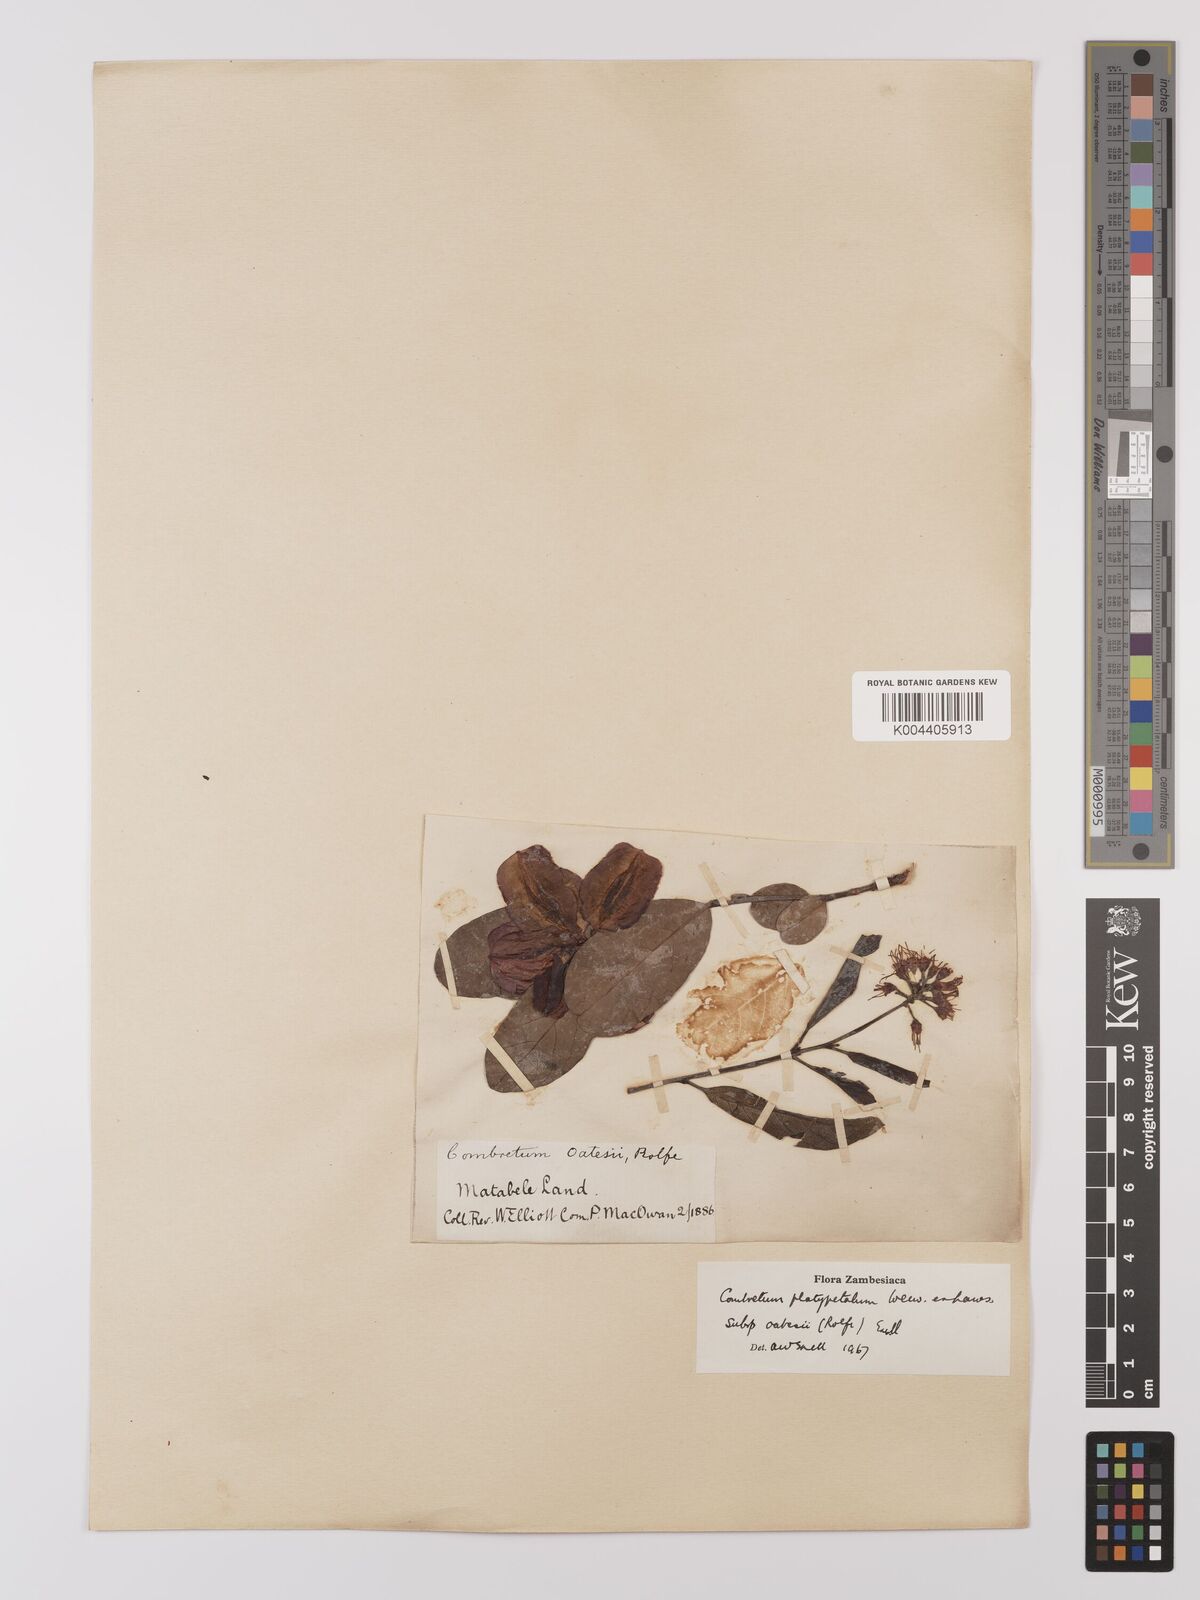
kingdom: Plantae
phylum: Tracheophyta
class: Magnoliopsida
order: Myrtales
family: Combretaceae
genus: Combretum
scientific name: Combretum platypetalum
